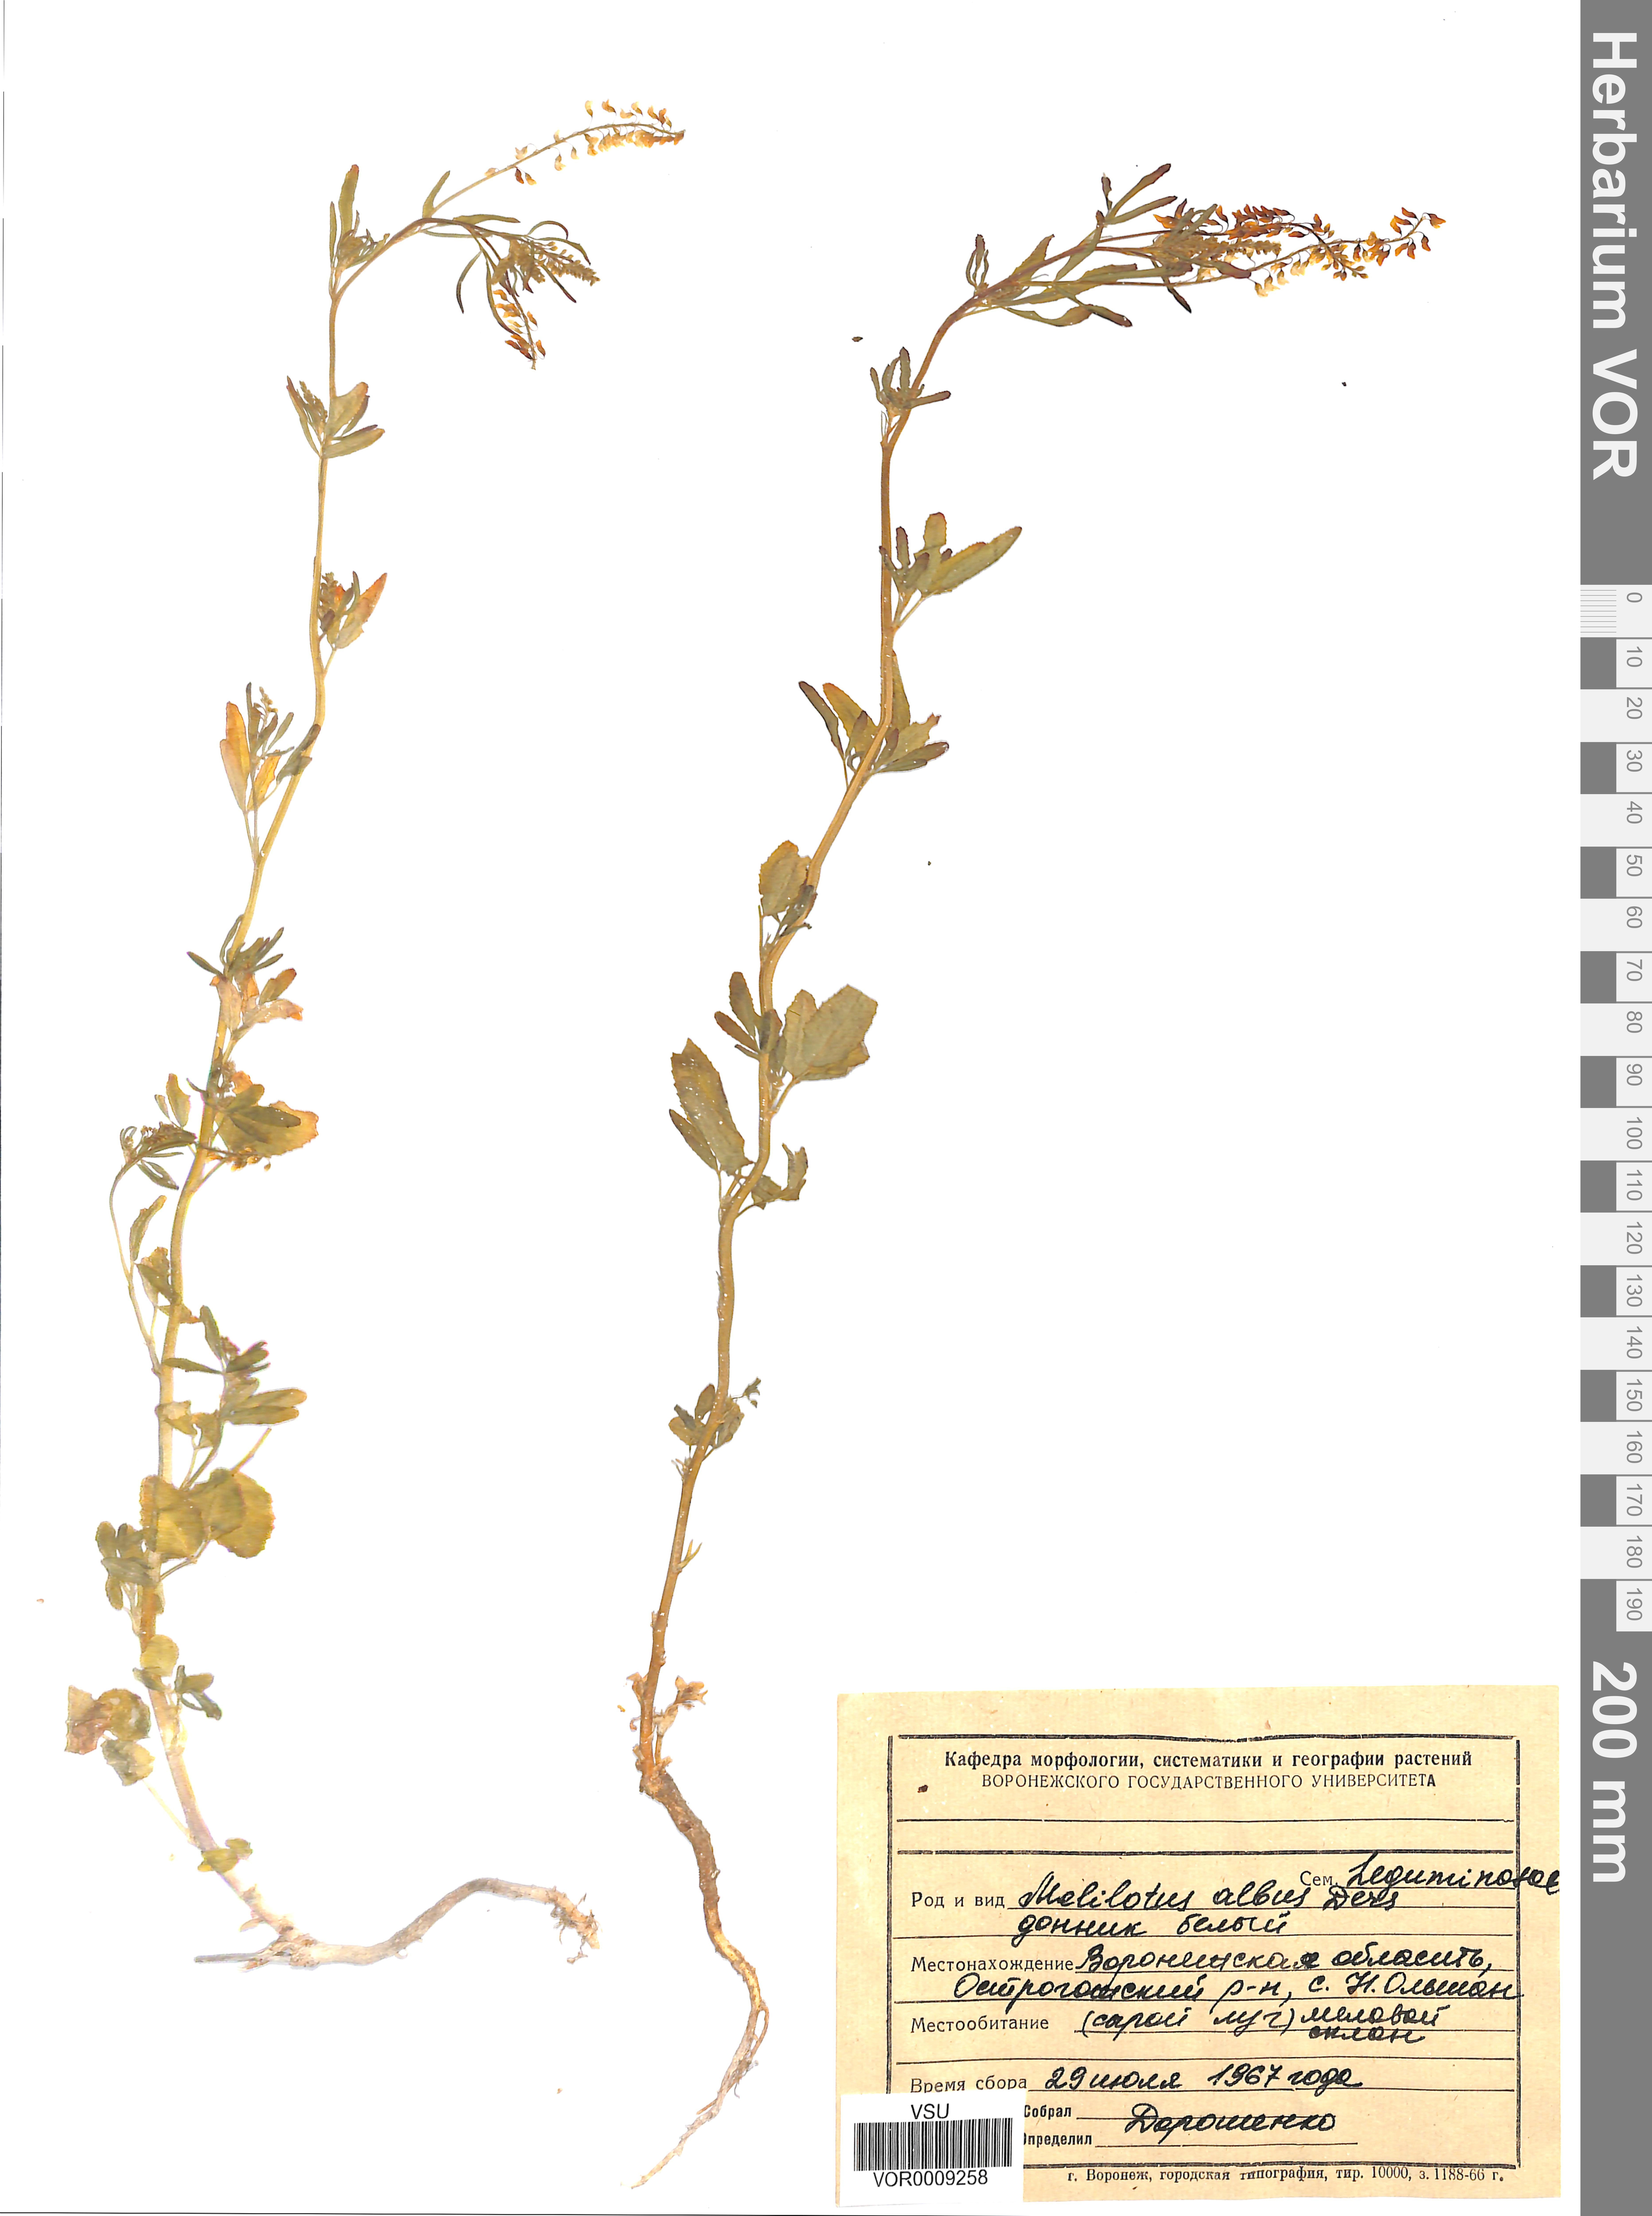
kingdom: Plantae
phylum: Tracheophyta
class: Magnoliopsida
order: Fabales
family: Fabaceae
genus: Melilotus
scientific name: Melilotus albus
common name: White melilot
